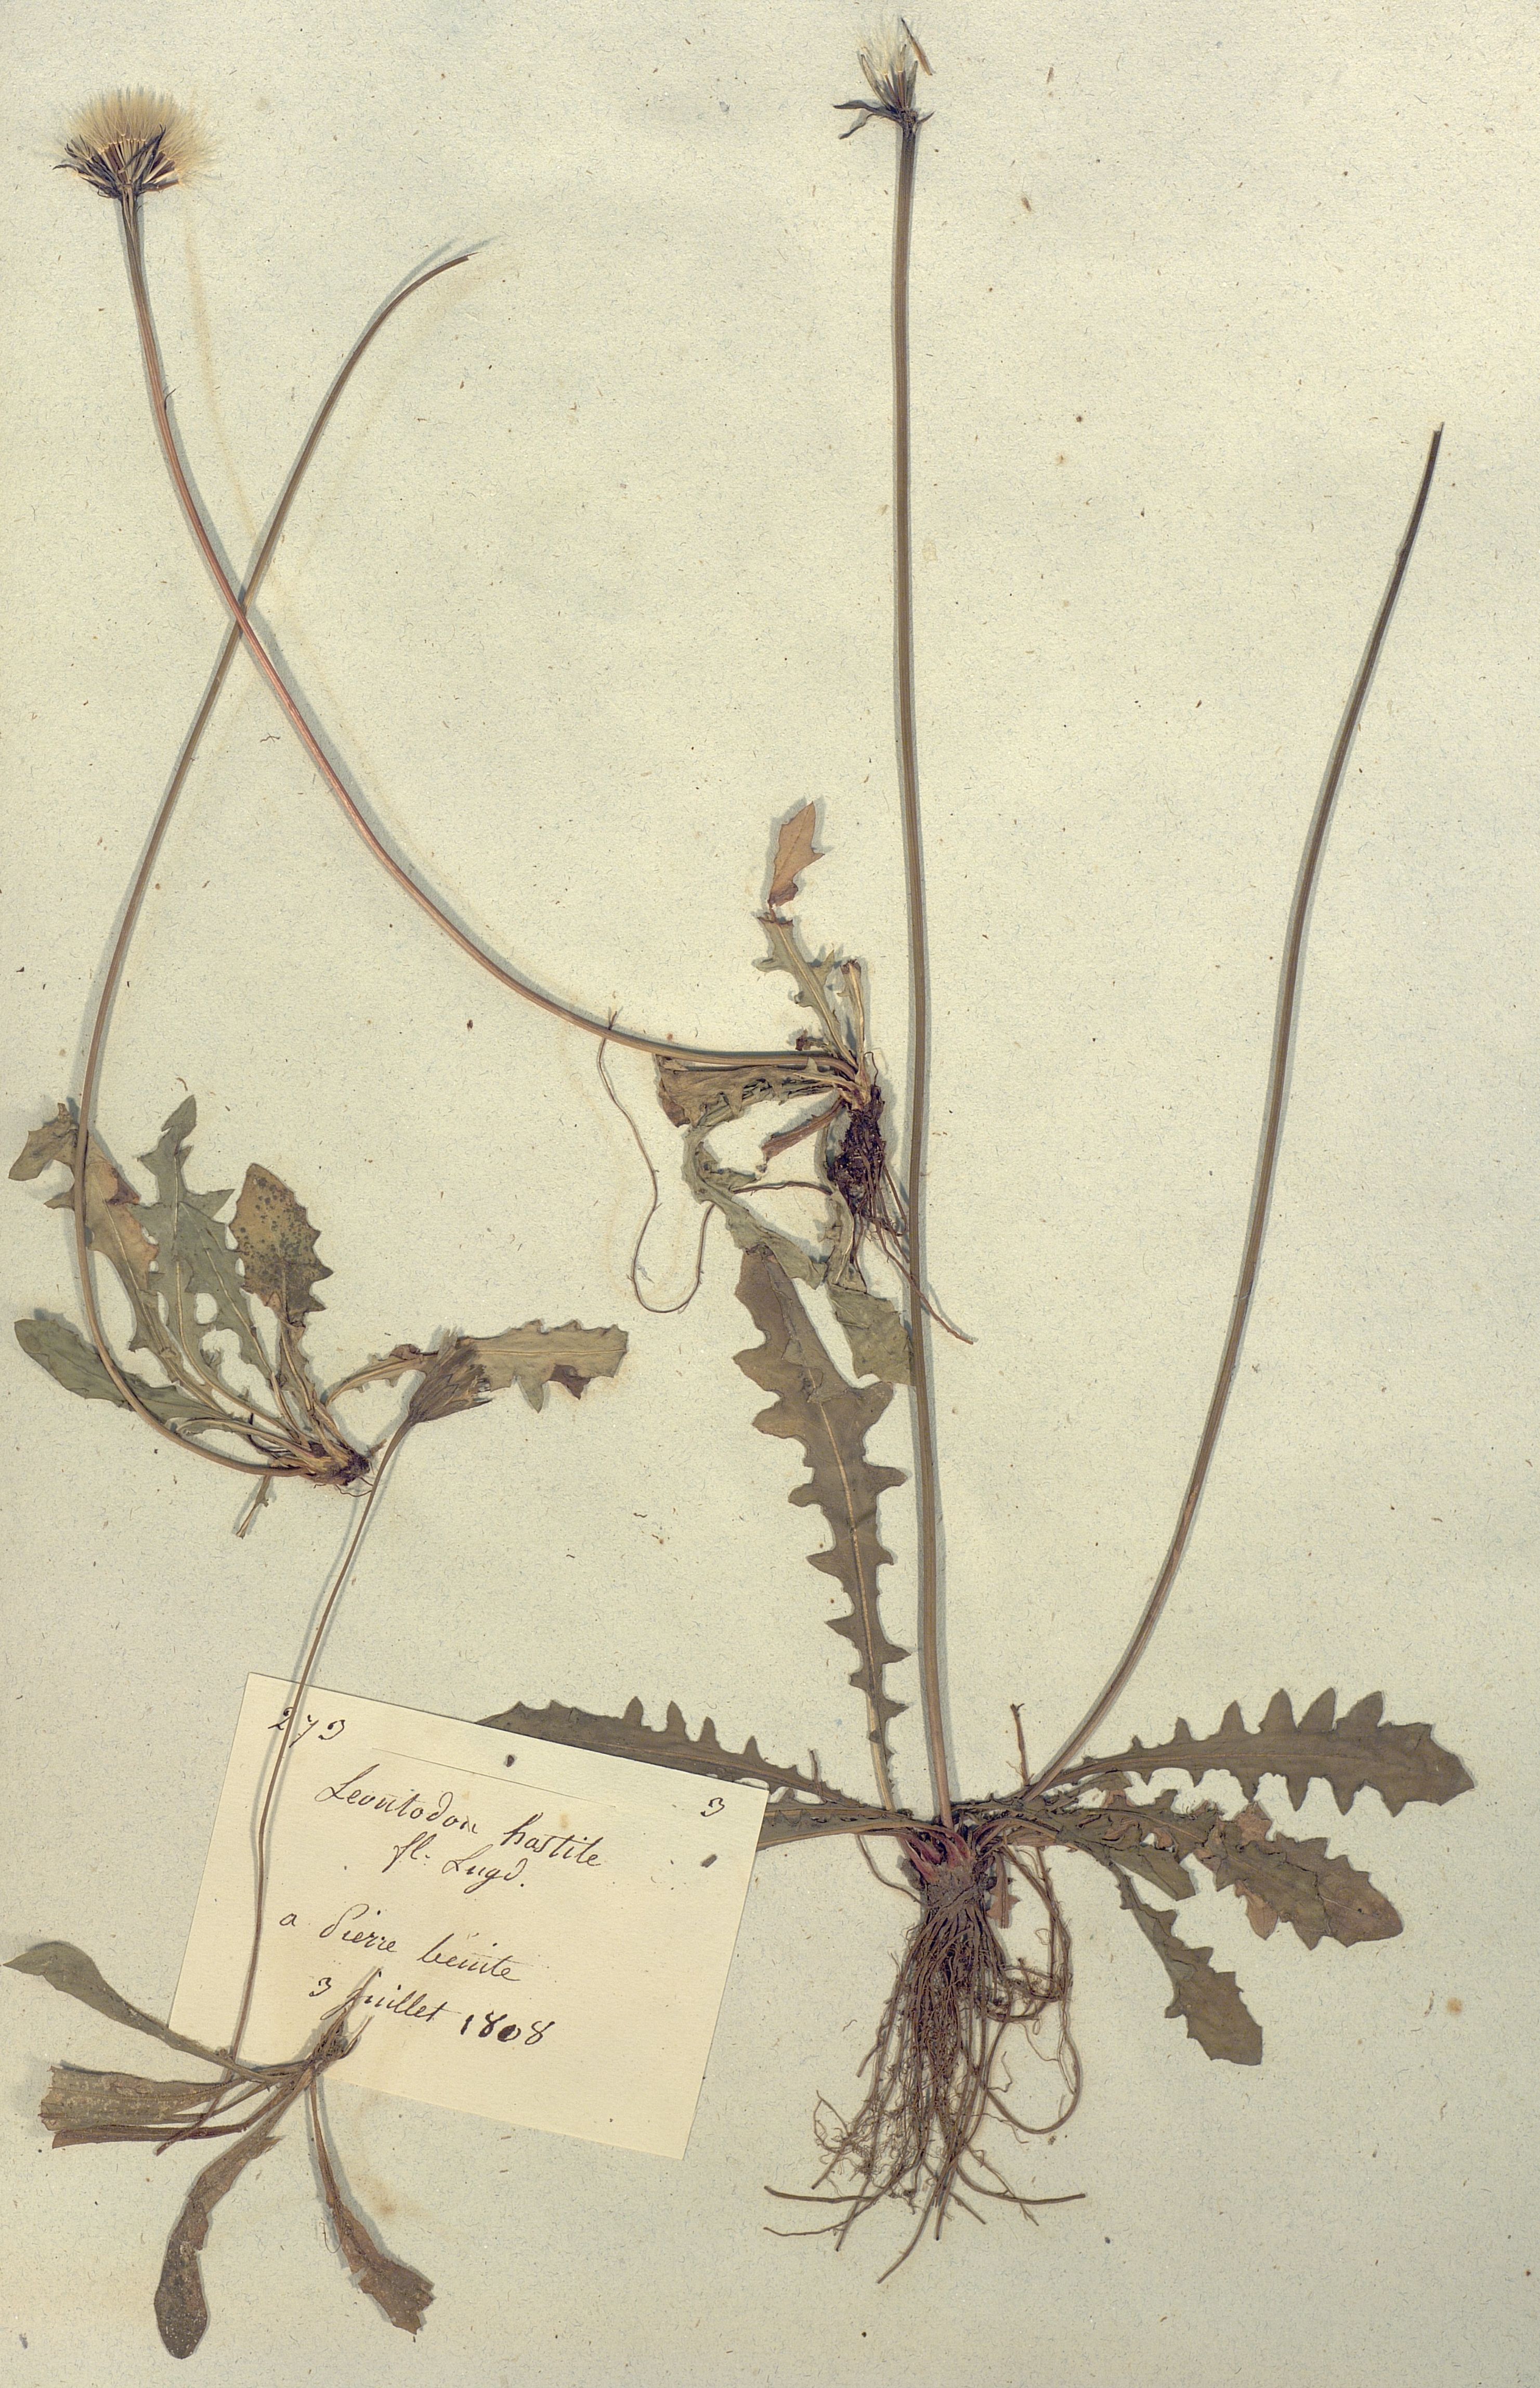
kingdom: Plantae
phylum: Tracheophyta
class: Magnoliopsida
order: Asterales
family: Asteraceae
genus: Leontodon
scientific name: Leontodon
